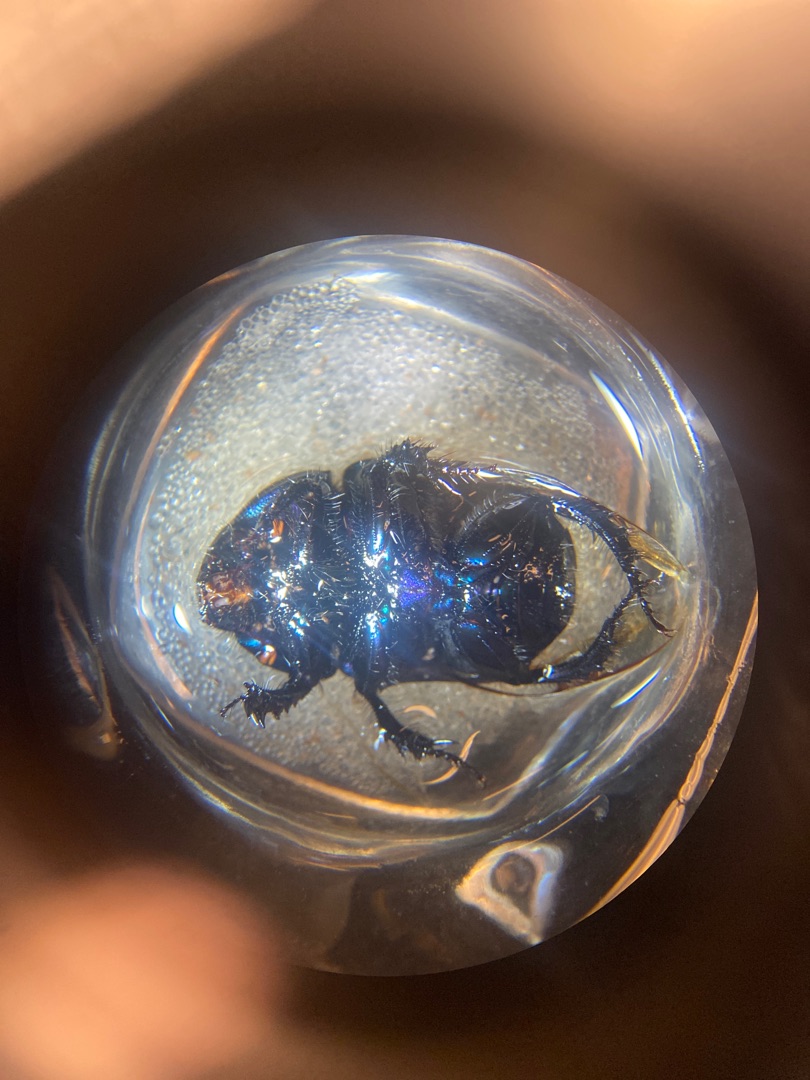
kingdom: Animalia
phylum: Arthropoda
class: Insecta
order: Coleoptera
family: Geotrupidae
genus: Geotrupes
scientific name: Geotrupes spiniger
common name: Markskarnbasse
